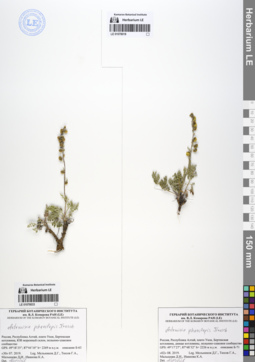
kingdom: Plantae
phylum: Tracheophyta
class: Magnoliopsida
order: Asterales
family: Asteraceae
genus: Artemisia
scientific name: Artemisia phaeolepis
